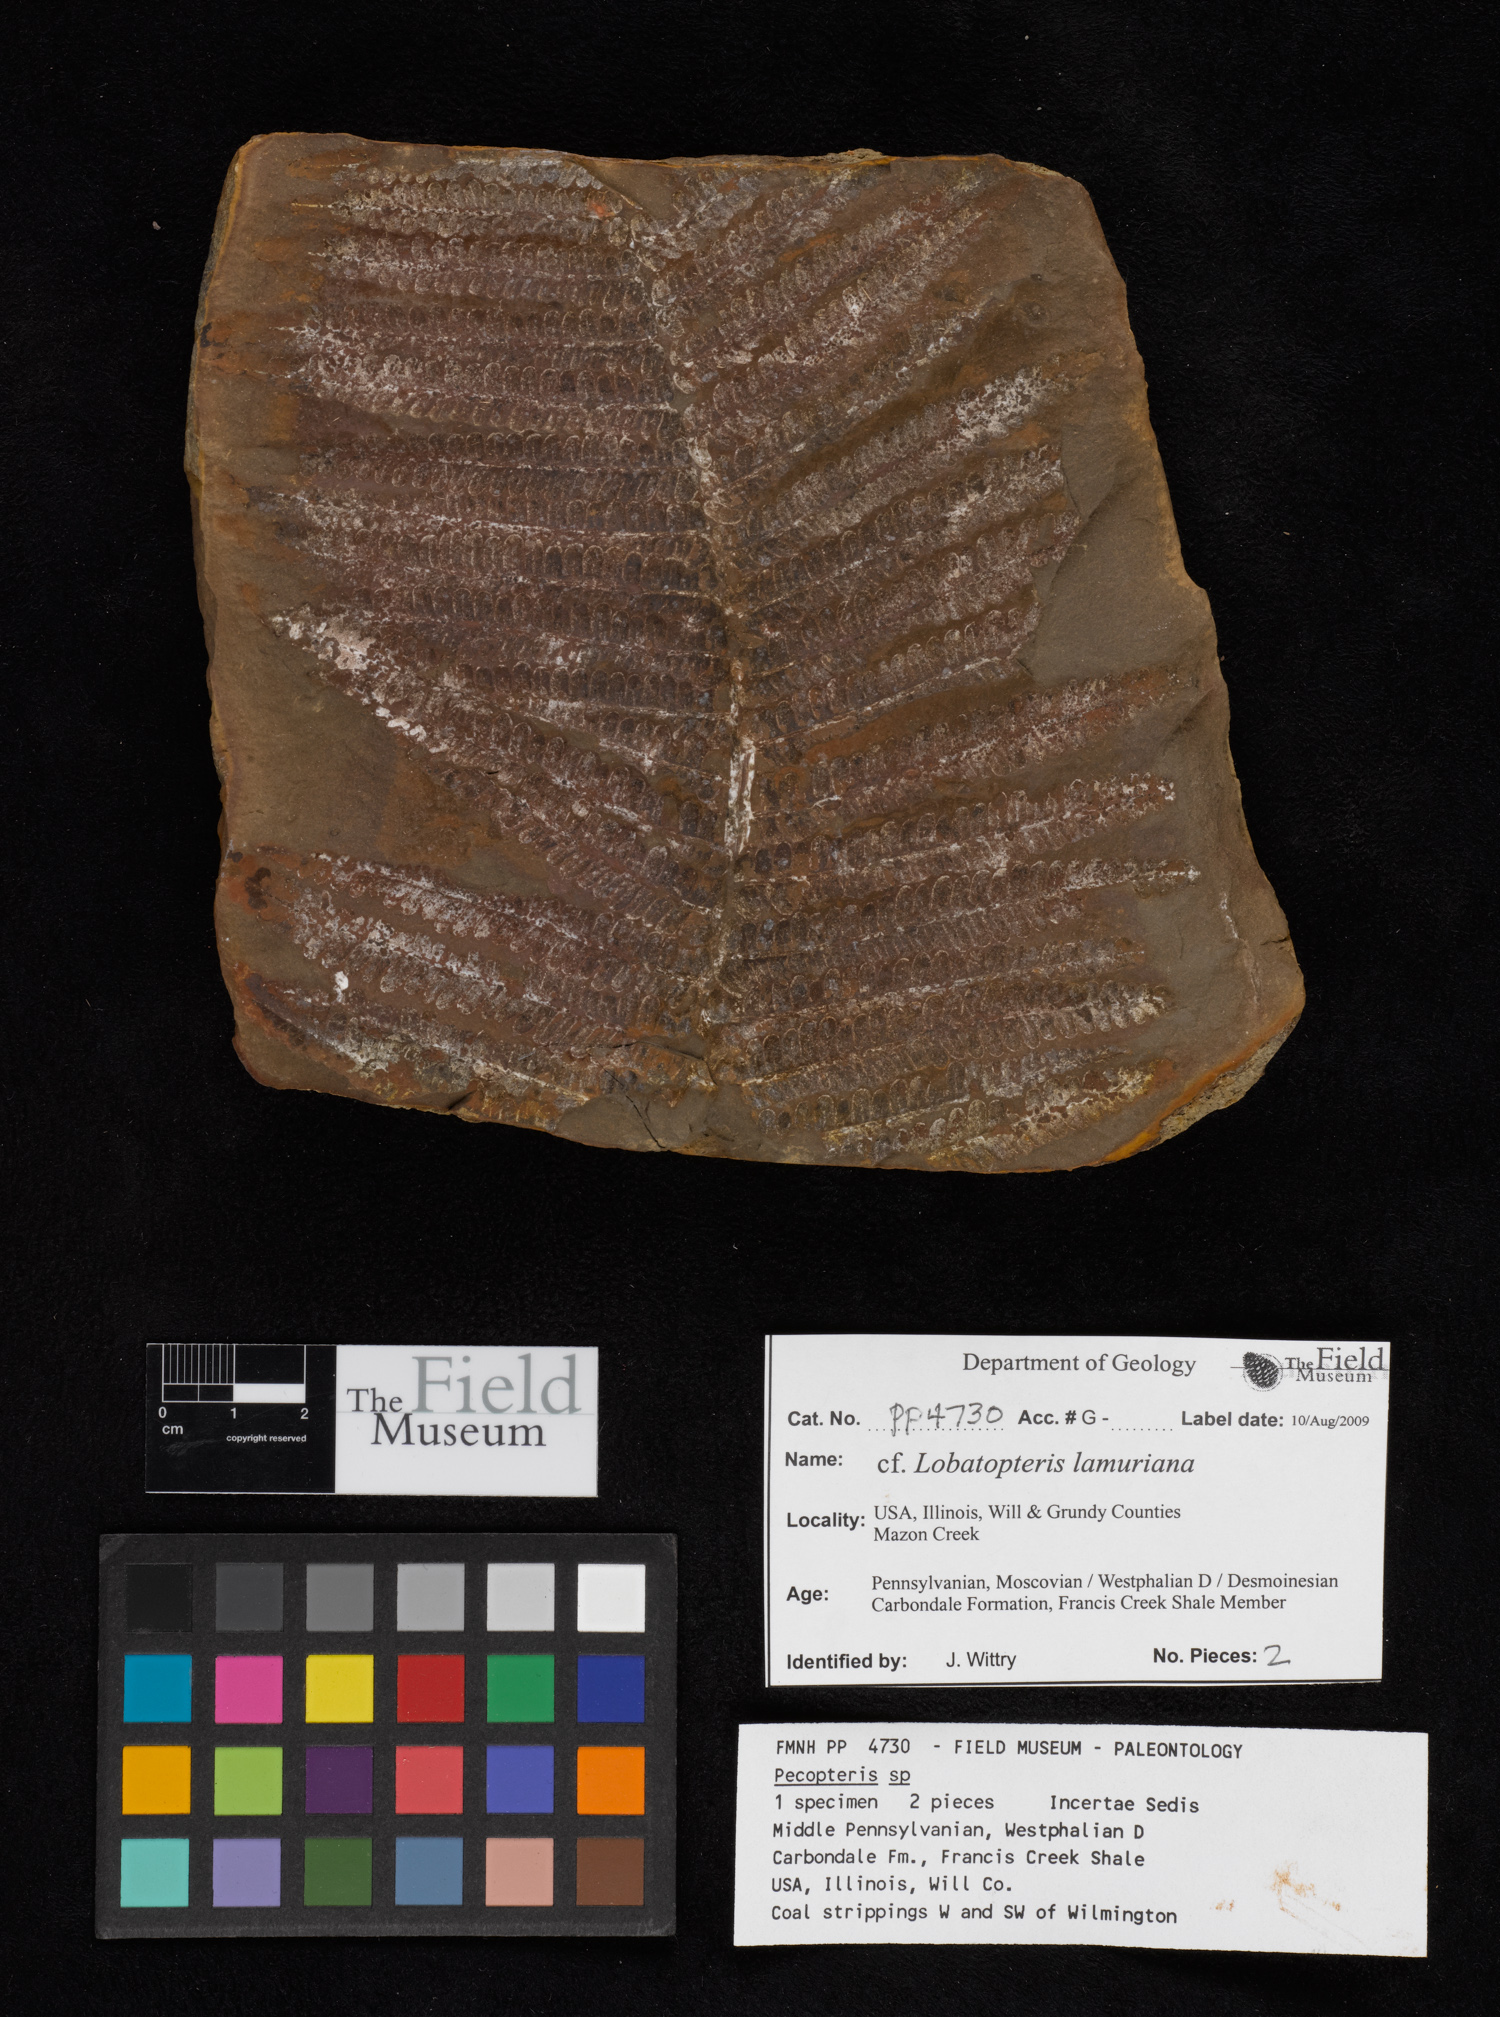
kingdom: Plantae
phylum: Tracheophyta
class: Polypodiopsida
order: Marattiales
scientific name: Marattiales
